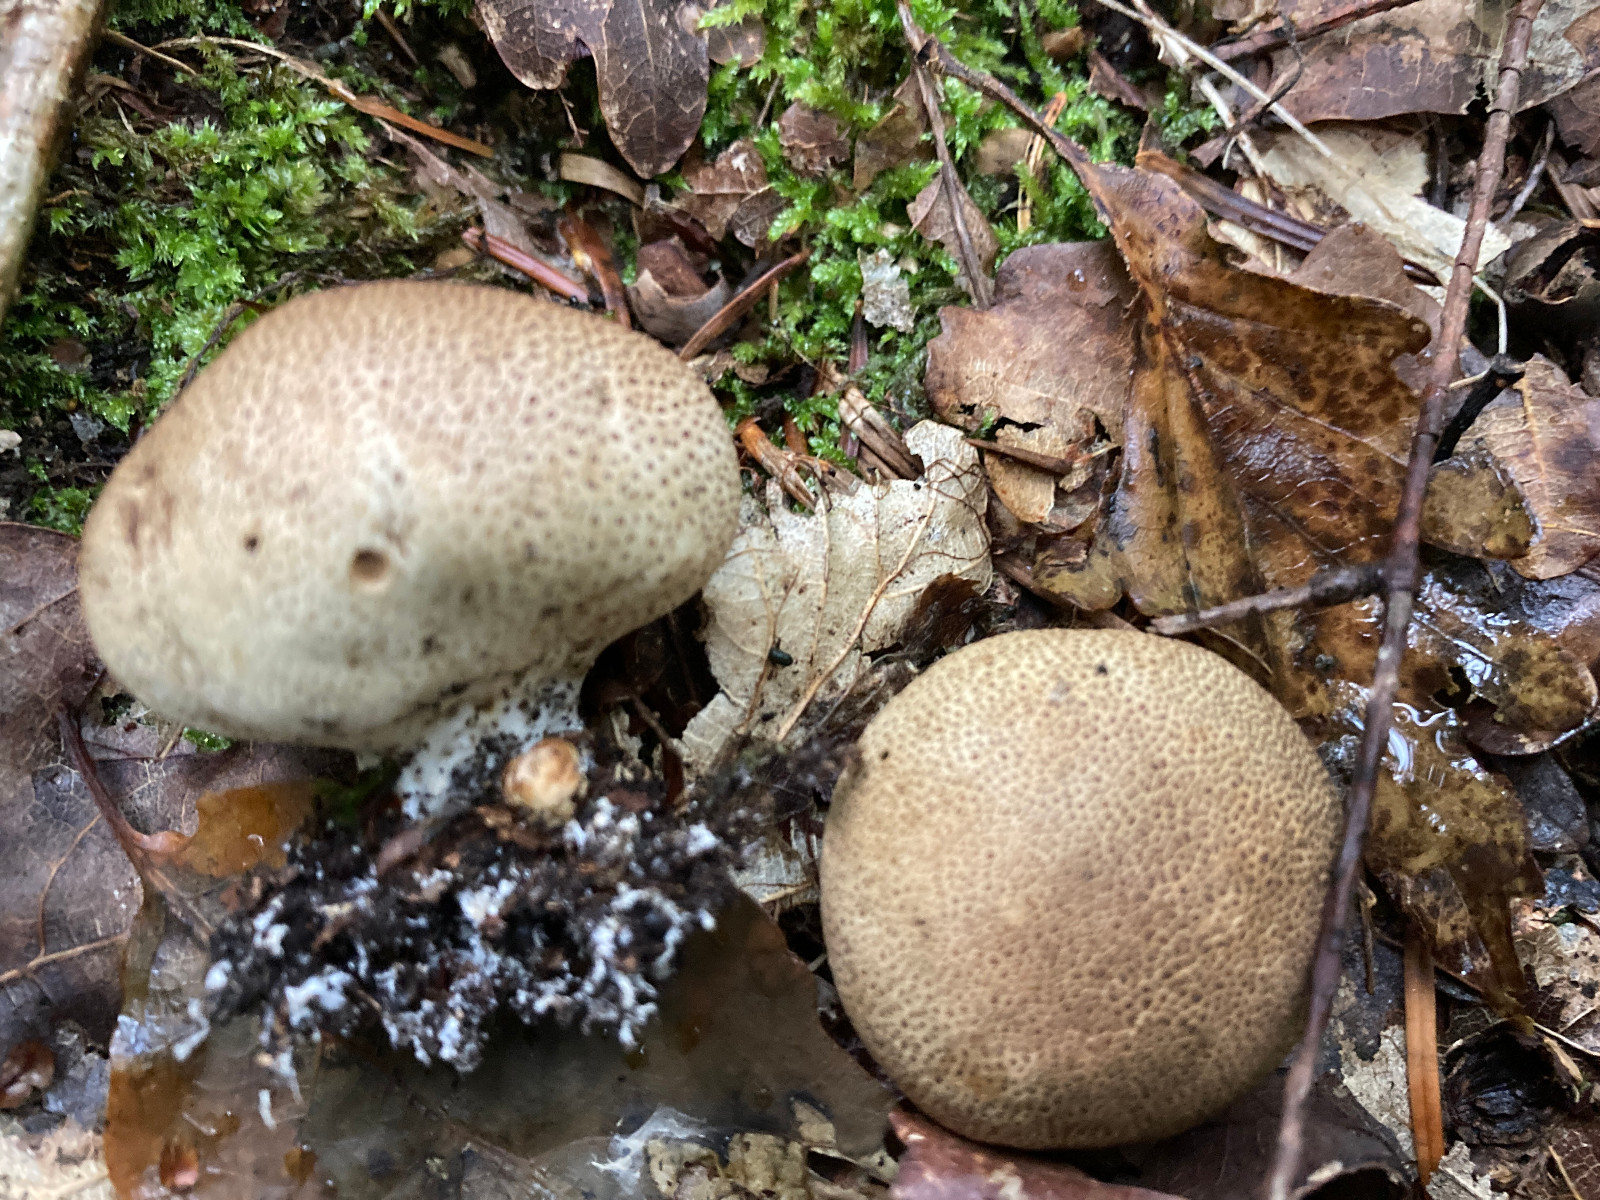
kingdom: Fungi
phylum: Basidiomycota
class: Agaricomycetes
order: Boletales
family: Sclerodermataceae
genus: Scleroderma
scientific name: Scleroderma areolatum
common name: plettet bruskbold
